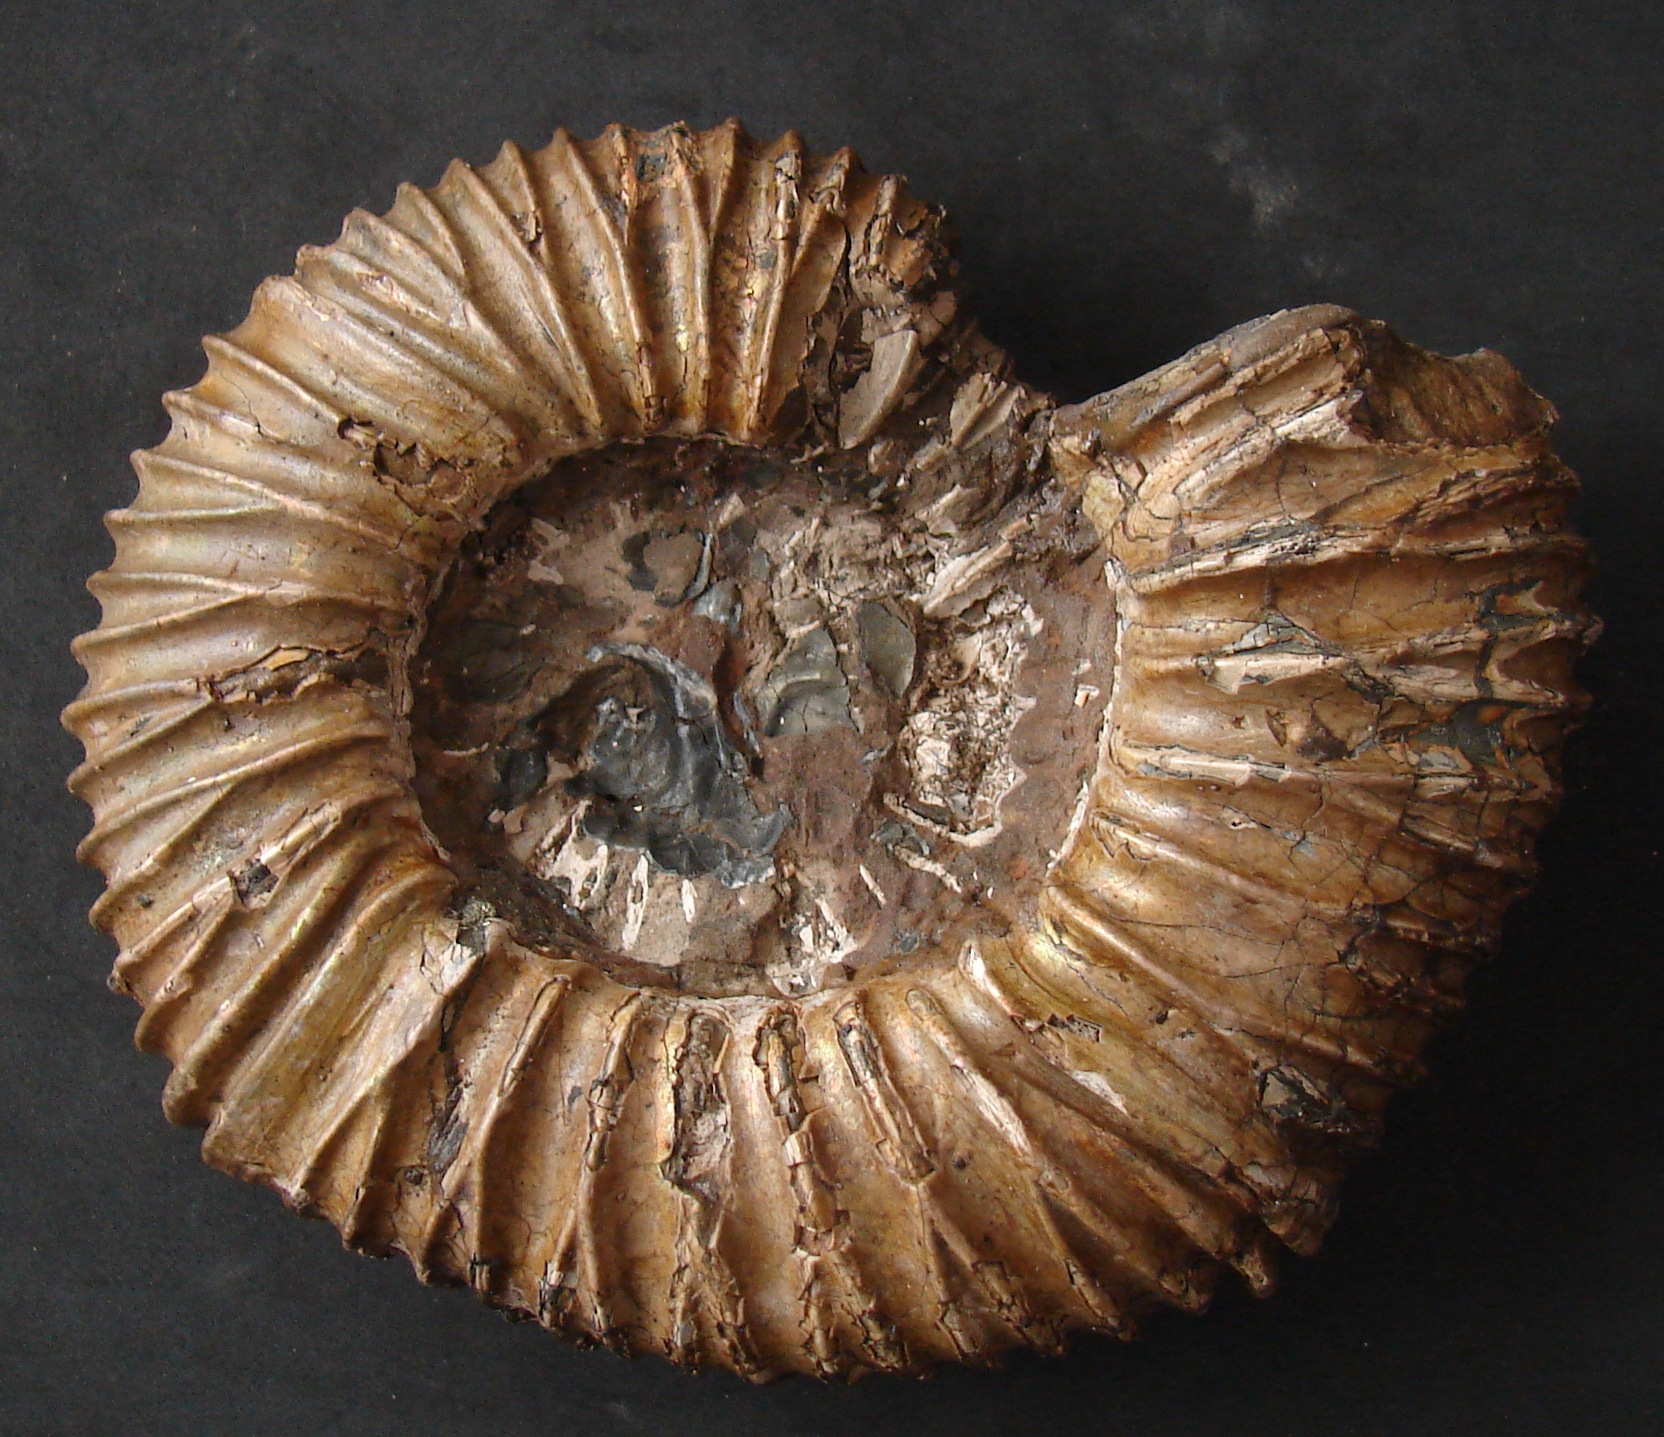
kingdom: Animalia
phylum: Mollusca
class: Cephalopoda
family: Perisphinctidae
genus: Perisphinctes
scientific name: Perisphinctes
